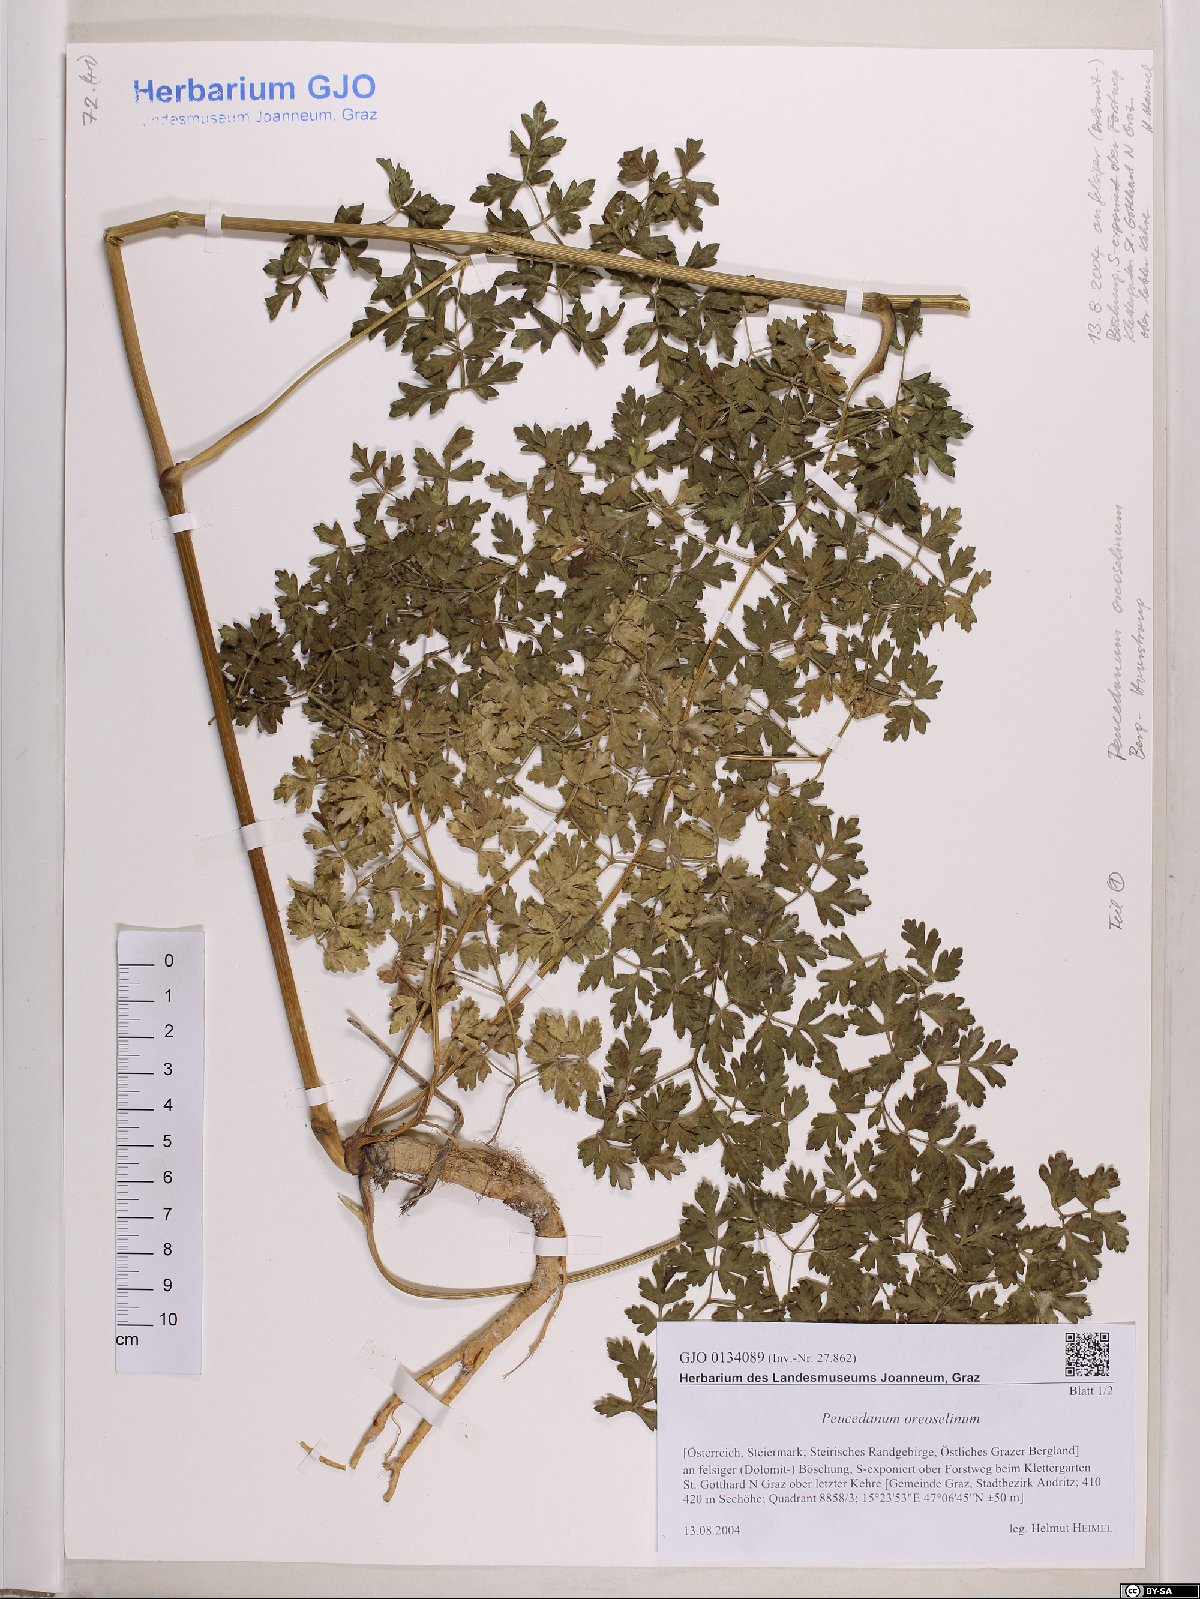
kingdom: Plantae
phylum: Tracheophyta
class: Magnoliopsida
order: Apiales
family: Apiaceae
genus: Oreoselinum
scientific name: Oreoselinum nigrum
